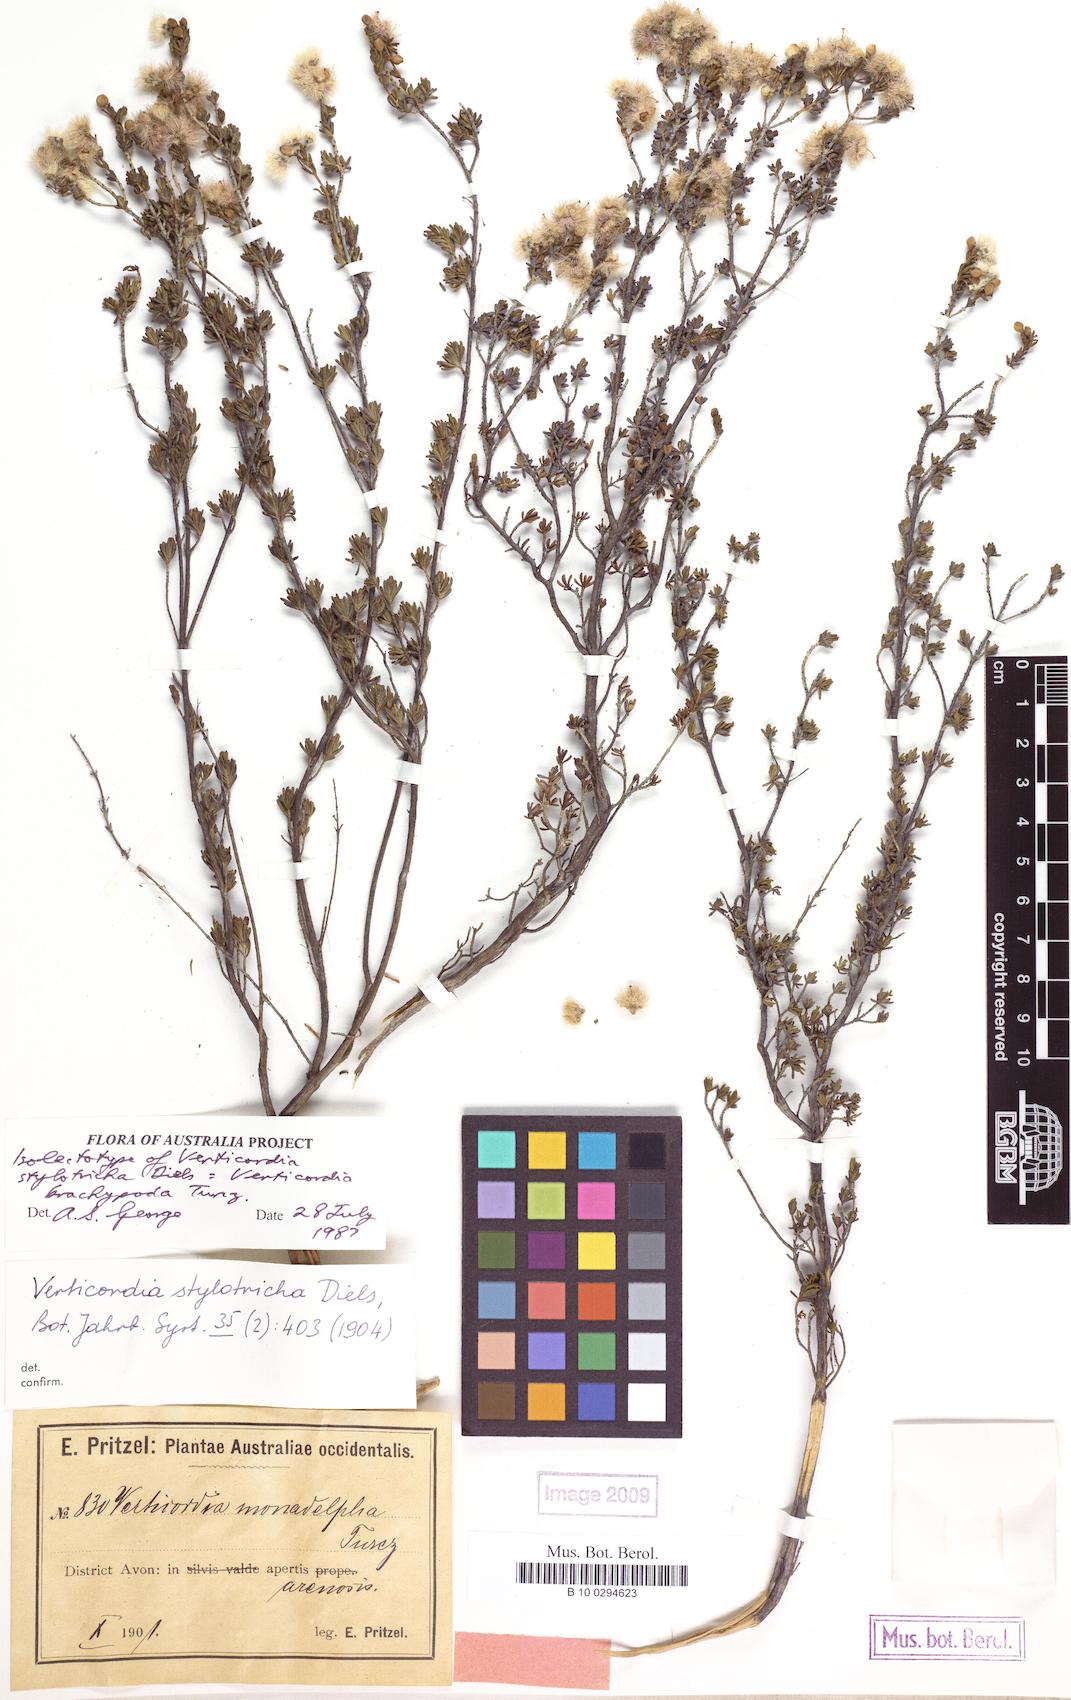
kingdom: Plantae
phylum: Tracheophyta
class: Magnoliopsida
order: Myrtales
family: Myrtaceae
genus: Verticordia
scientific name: Verticordia brachypoda
